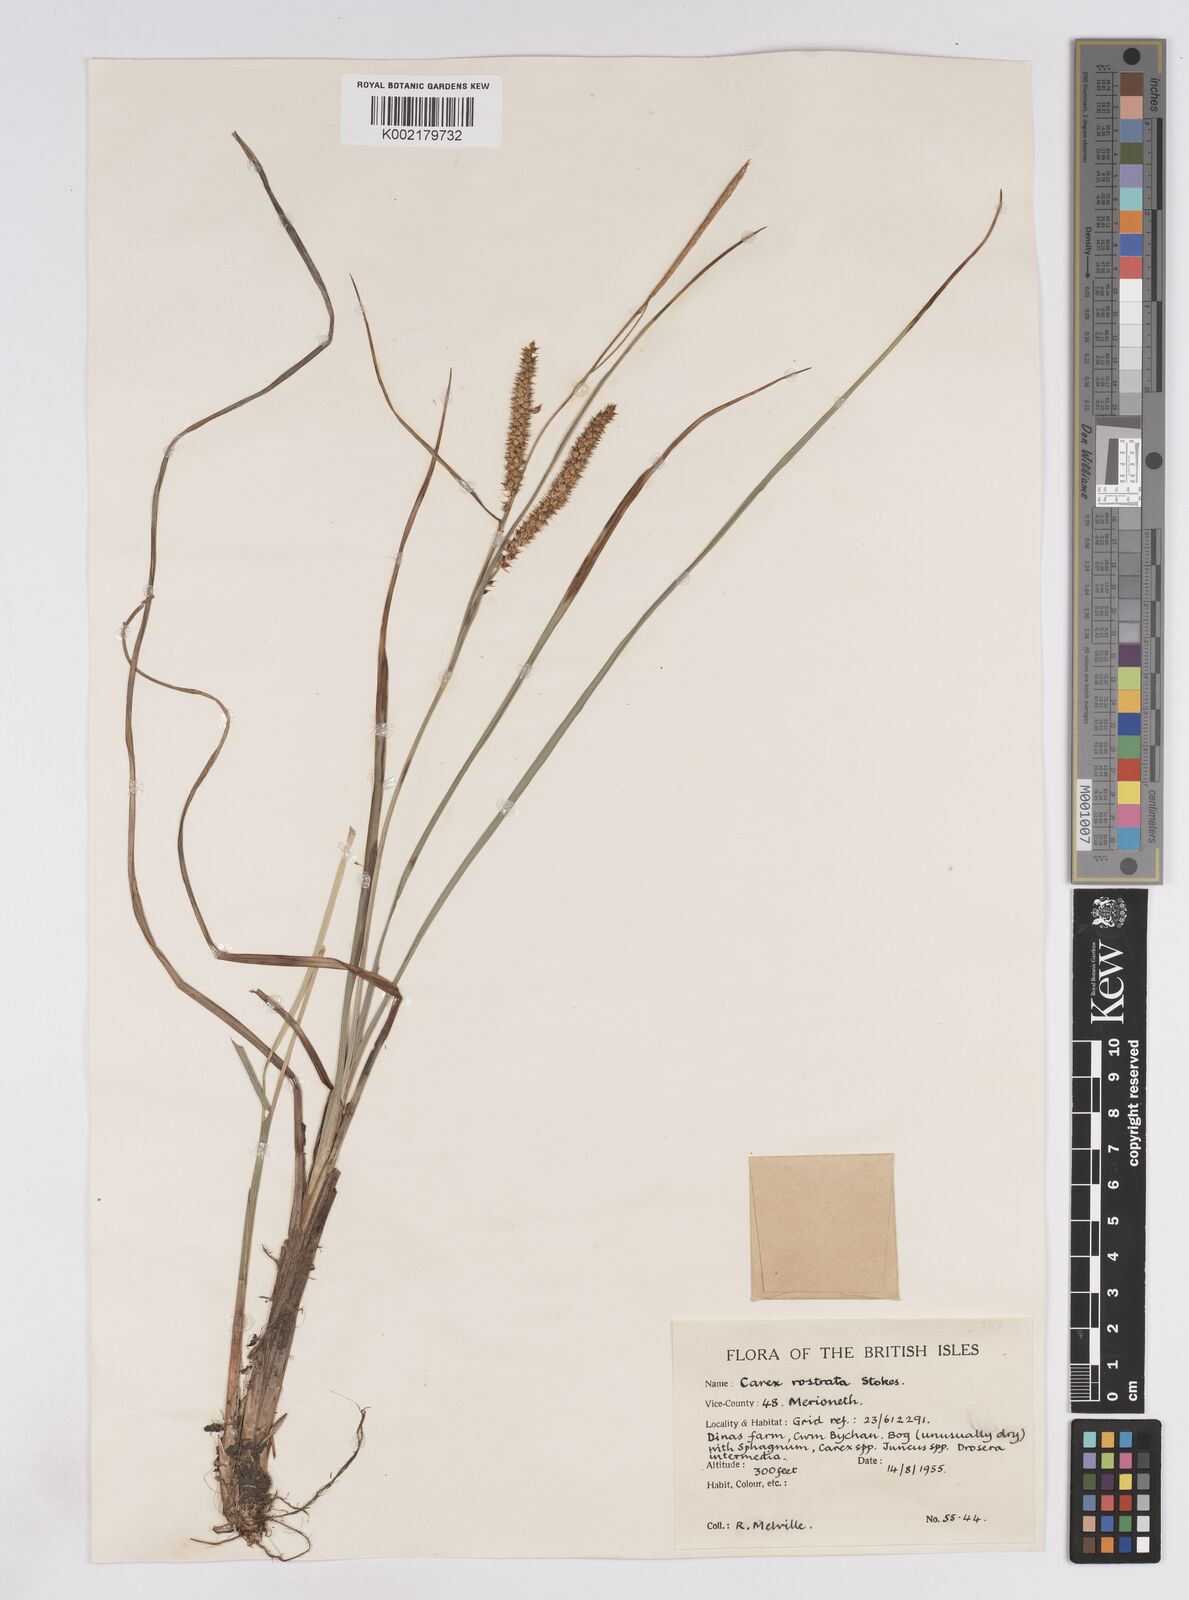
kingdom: Plantae
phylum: Tracheophyta
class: Liliopsida
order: Poales
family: Cyperaceae
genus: Carex
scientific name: Carex rostrata
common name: Bottle sedge
